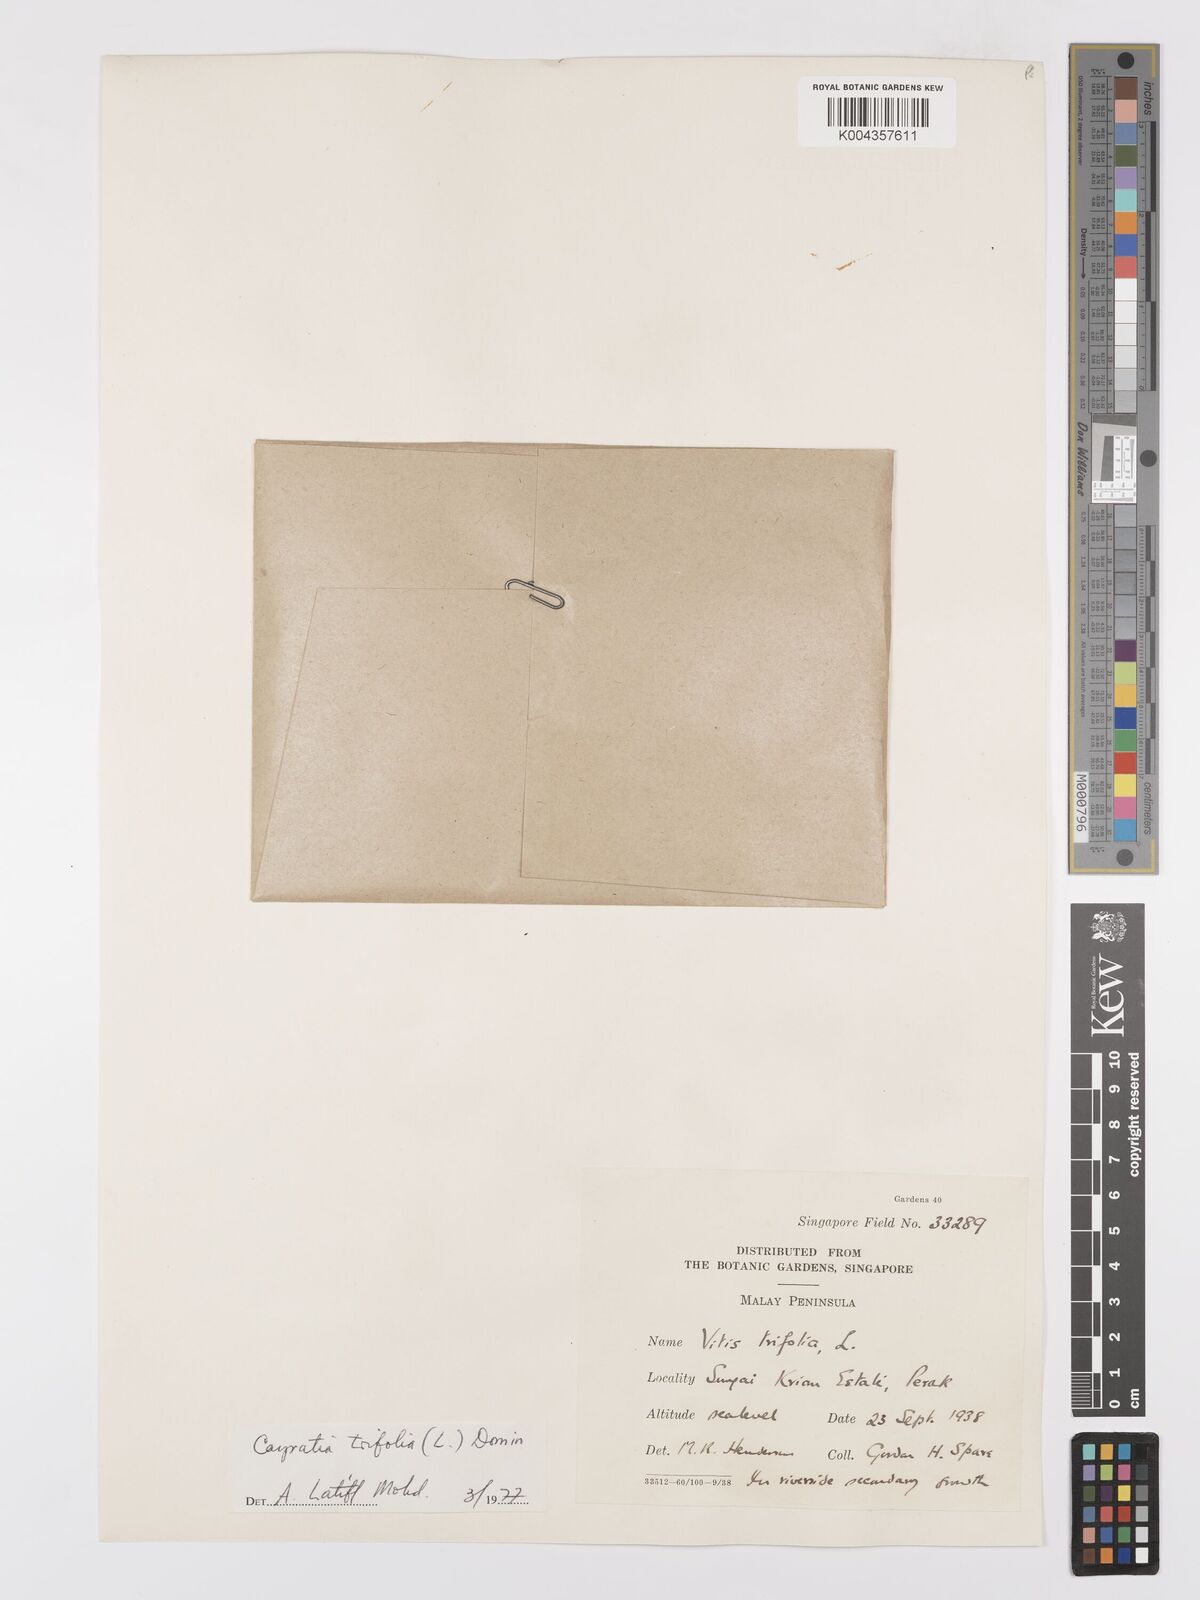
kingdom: Plantae
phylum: Tracheophyta
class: Magnoliopsida
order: Vitales
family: Vitaceae
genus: Causonis
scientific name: Causonis trifolia
